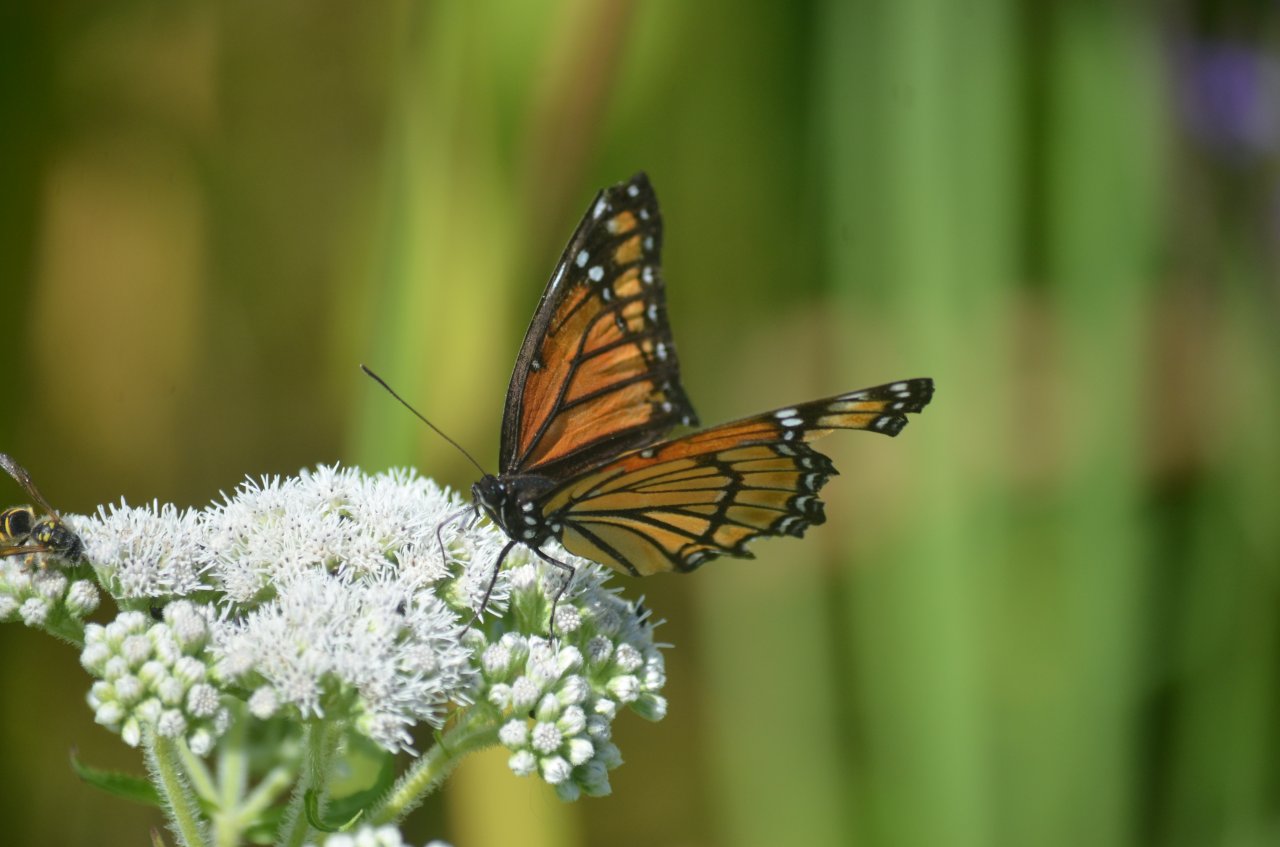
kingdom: Animalia
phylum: Arthropoda
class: Insecta
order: Lepidoptera
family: Nymphalidae
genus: Limenitis
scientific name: Limenitis archippus
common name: Viceroy
